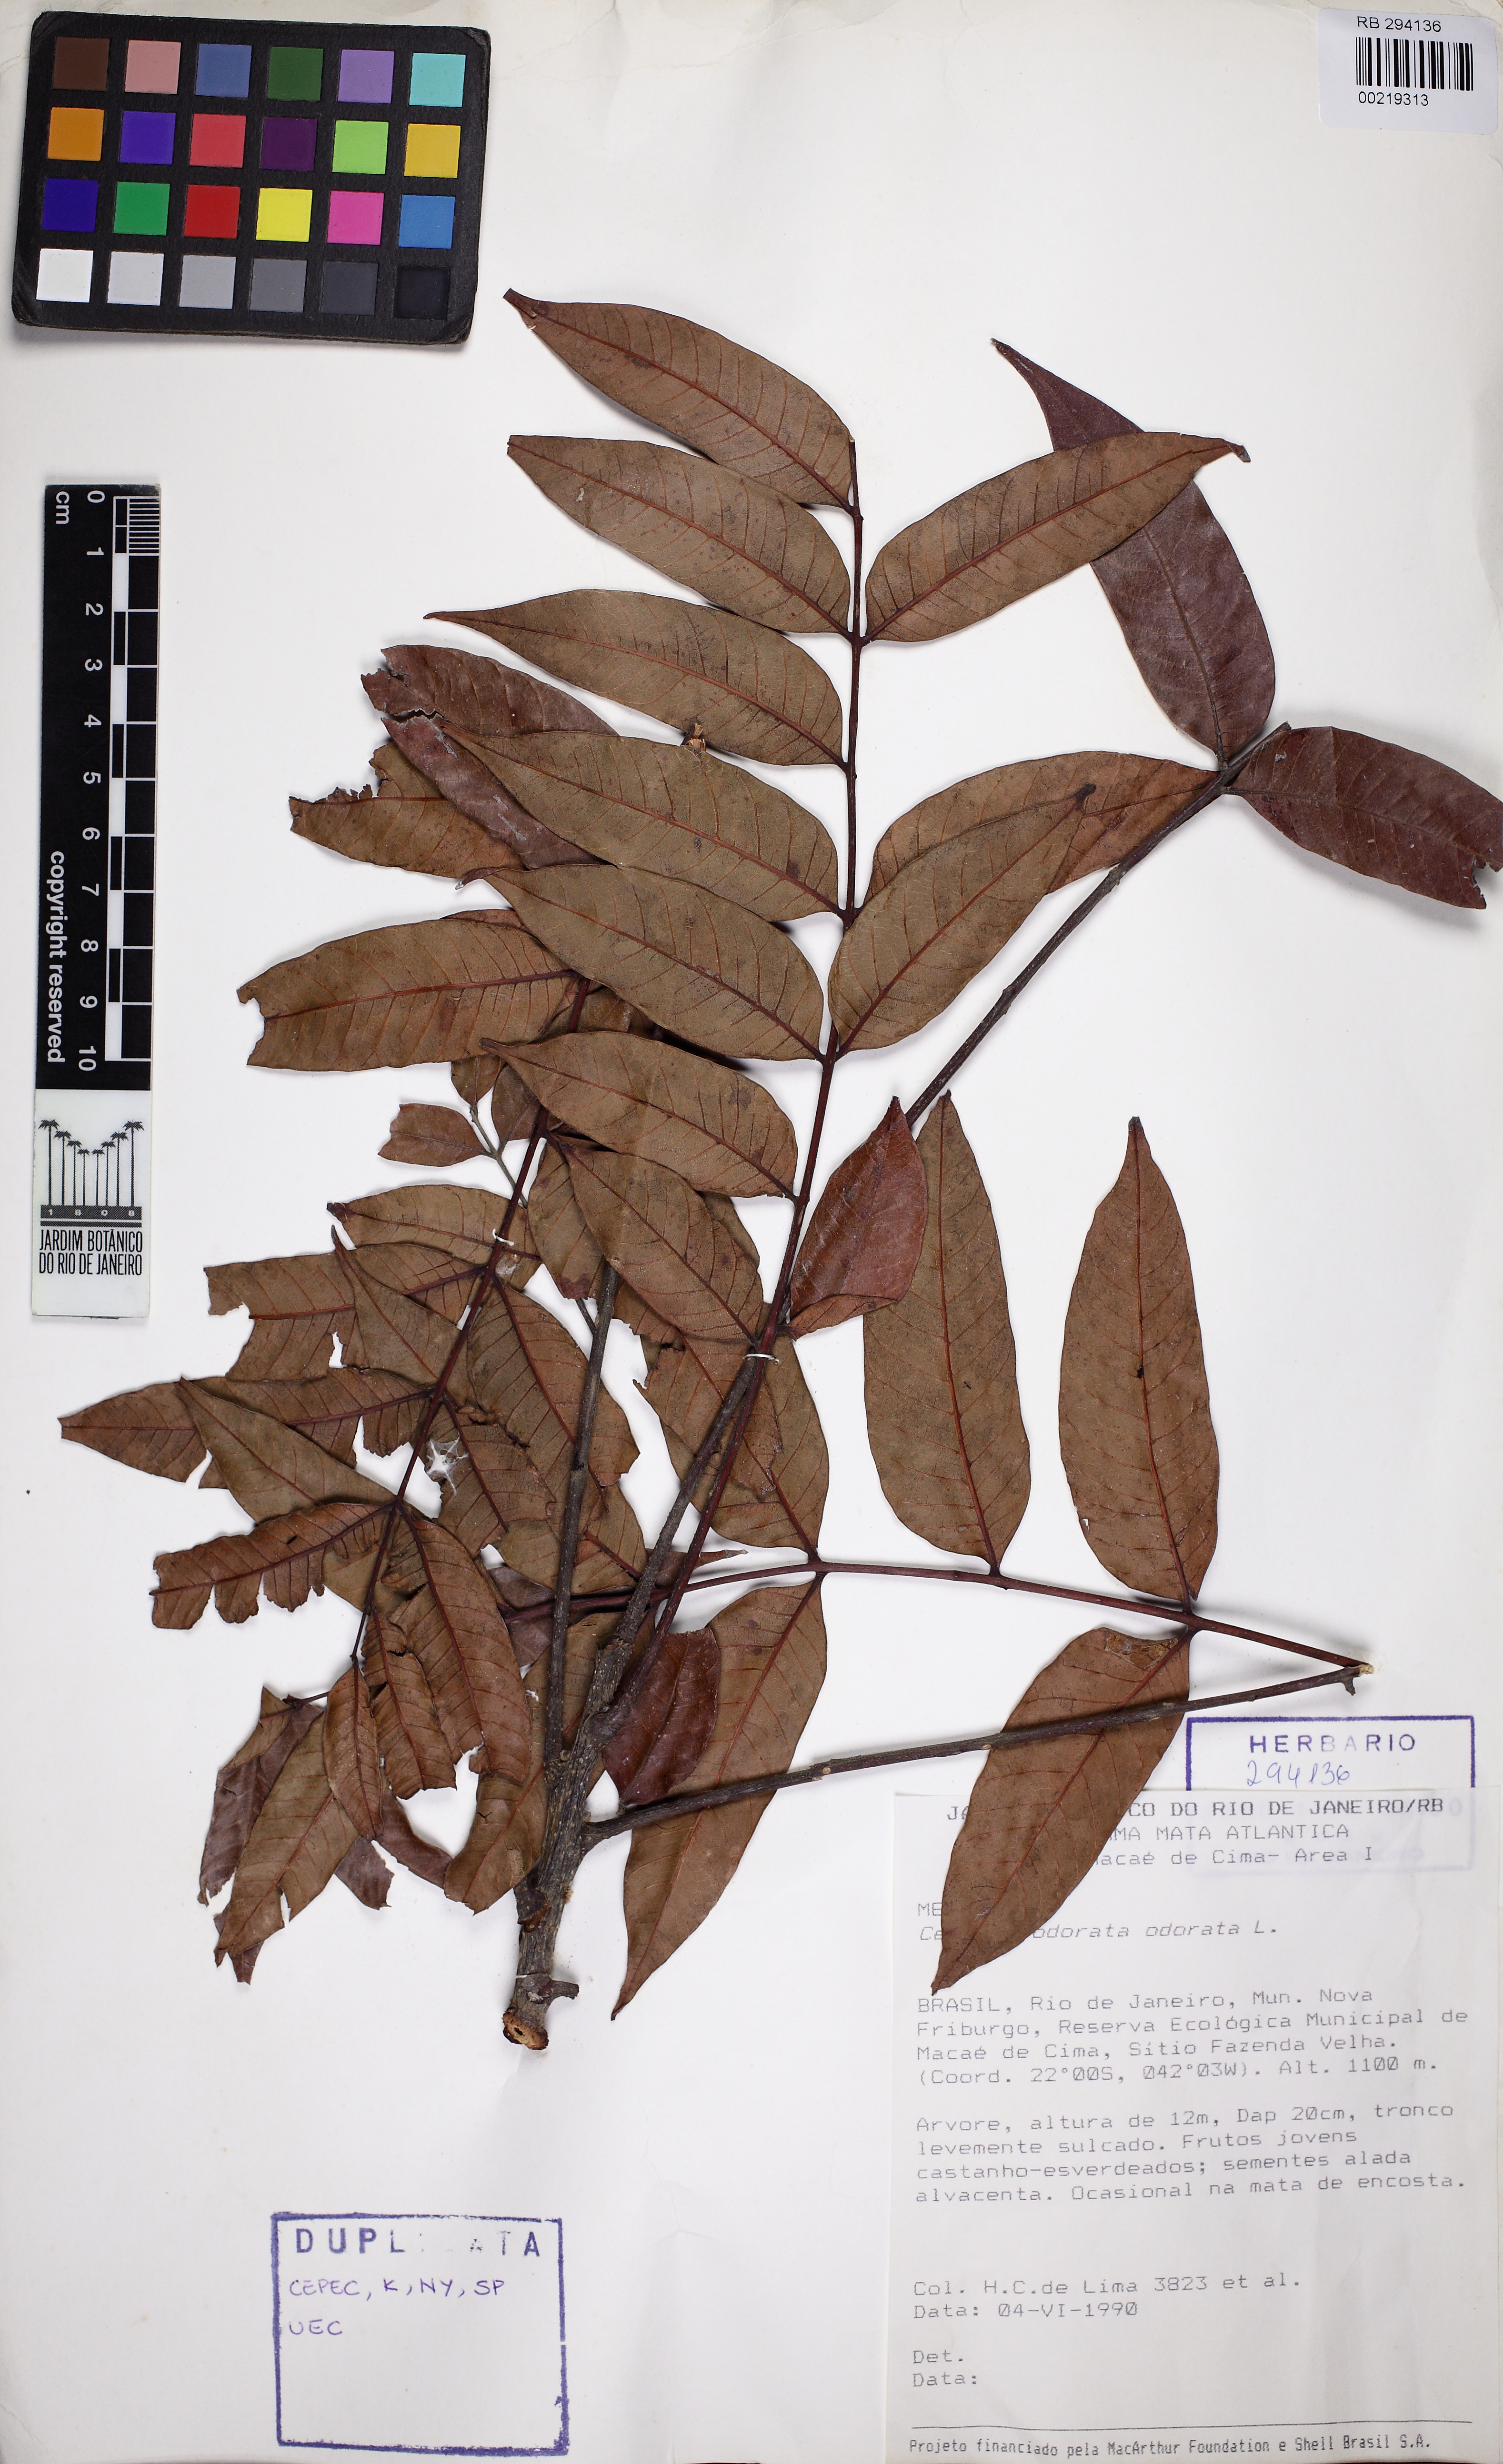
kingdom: Plantae
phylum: Tracheophyta
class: Magnoliopsida
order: Sapindales
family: Meliaceae
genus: Cedrela
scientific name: Cedrela odorata
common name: Red cedar
